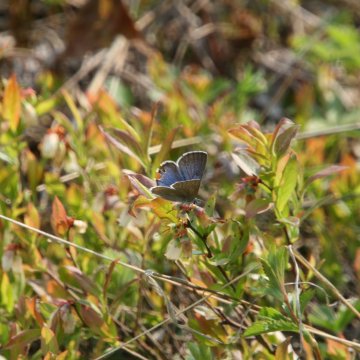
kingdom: Animalia
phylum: Arthropoda
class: Insecta
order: Lepidoptera
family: Lycaenidae
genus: Glaucopsyche
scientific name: Glaucopsyche lygdamus
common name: Silvery Blue
